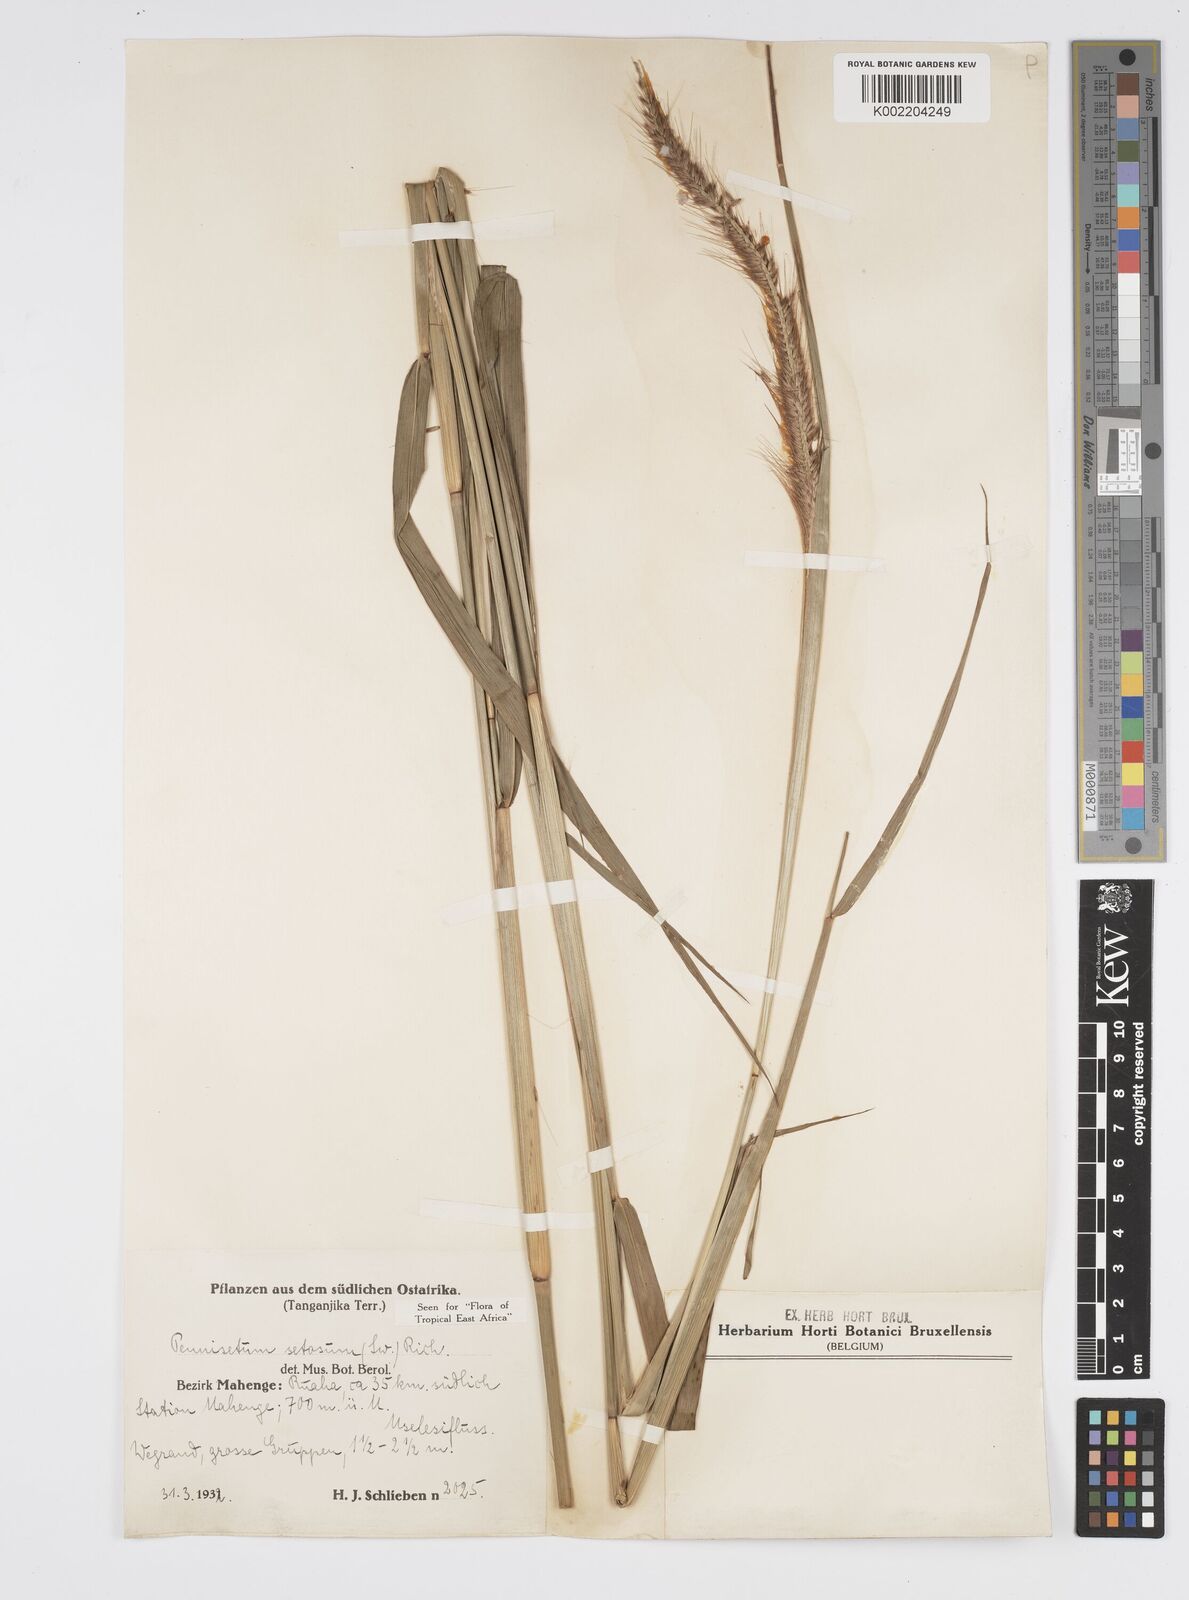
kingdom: Plantae
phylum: Tracheophyta
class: Liliopsida
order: Poales
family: Poaceae
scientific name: Poaceae
